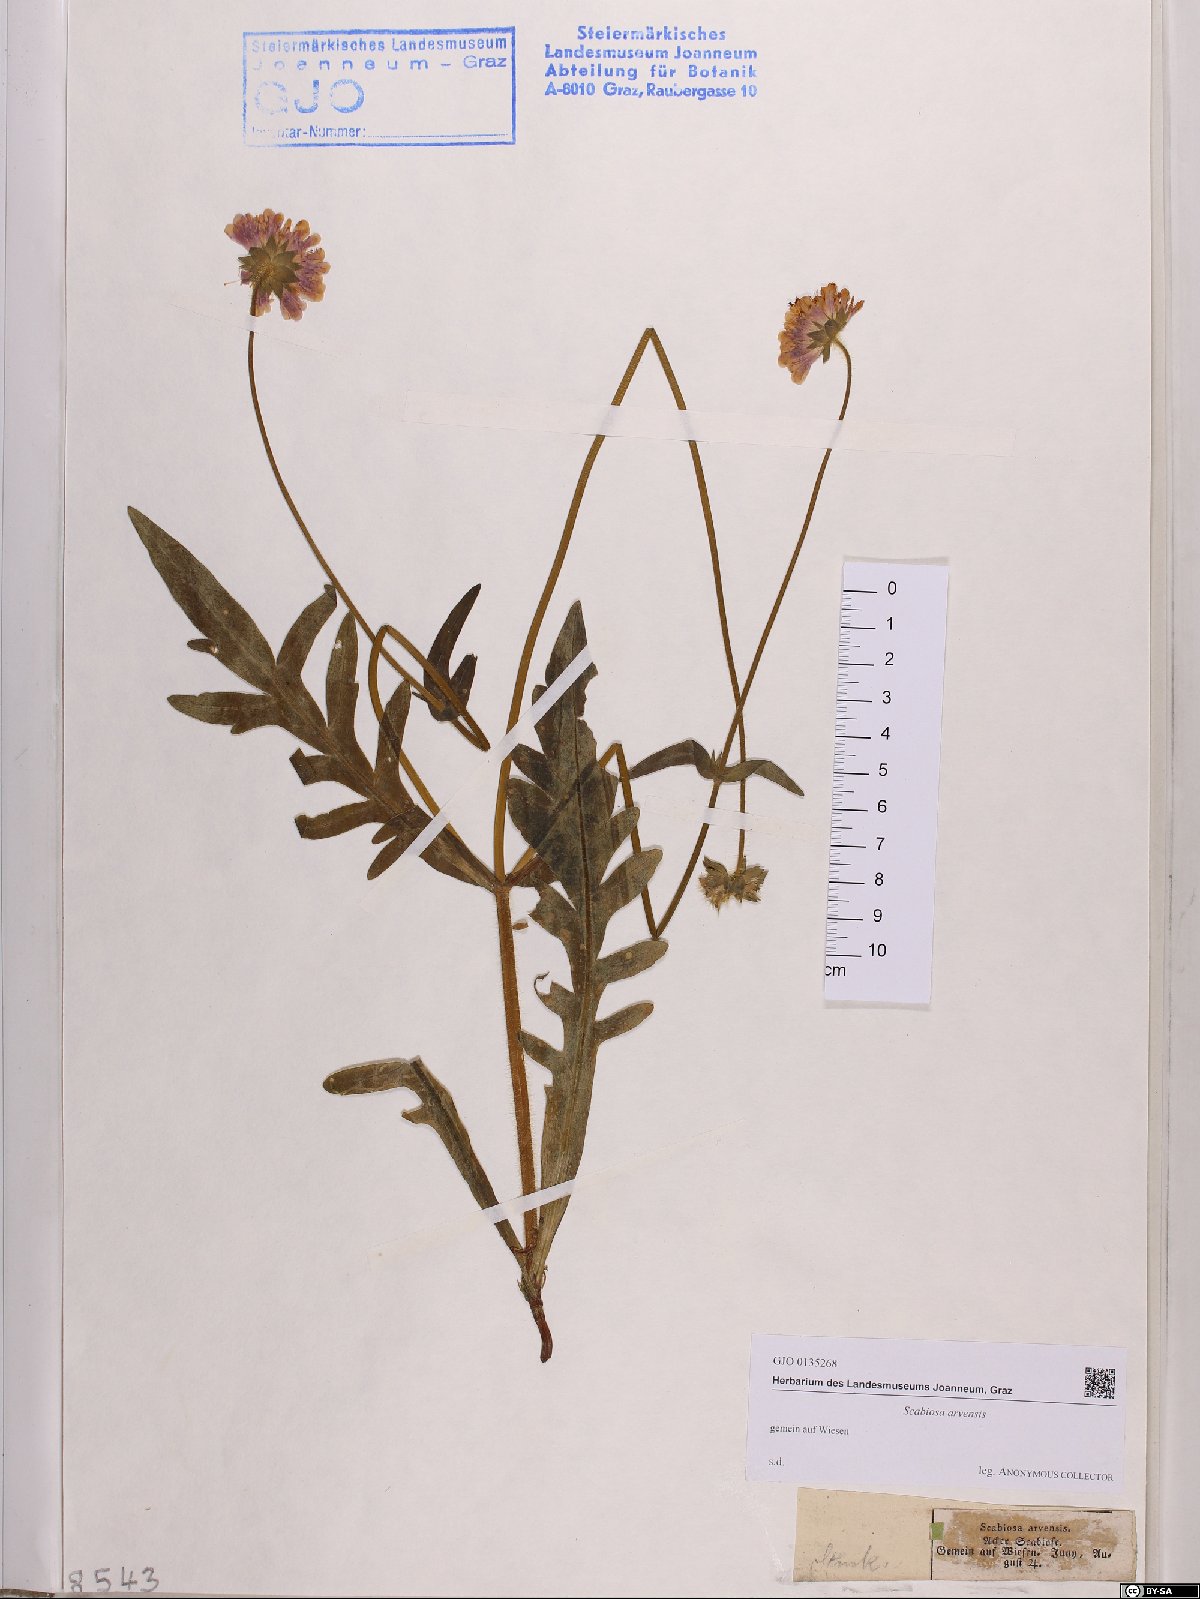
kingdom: Plantae
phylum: Tracheophyta
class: Magnoliopsida
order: Dipsacales
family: Caprifoliaceae
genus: Knautia
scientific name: Knautia arvensis
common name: Field scabiosa
